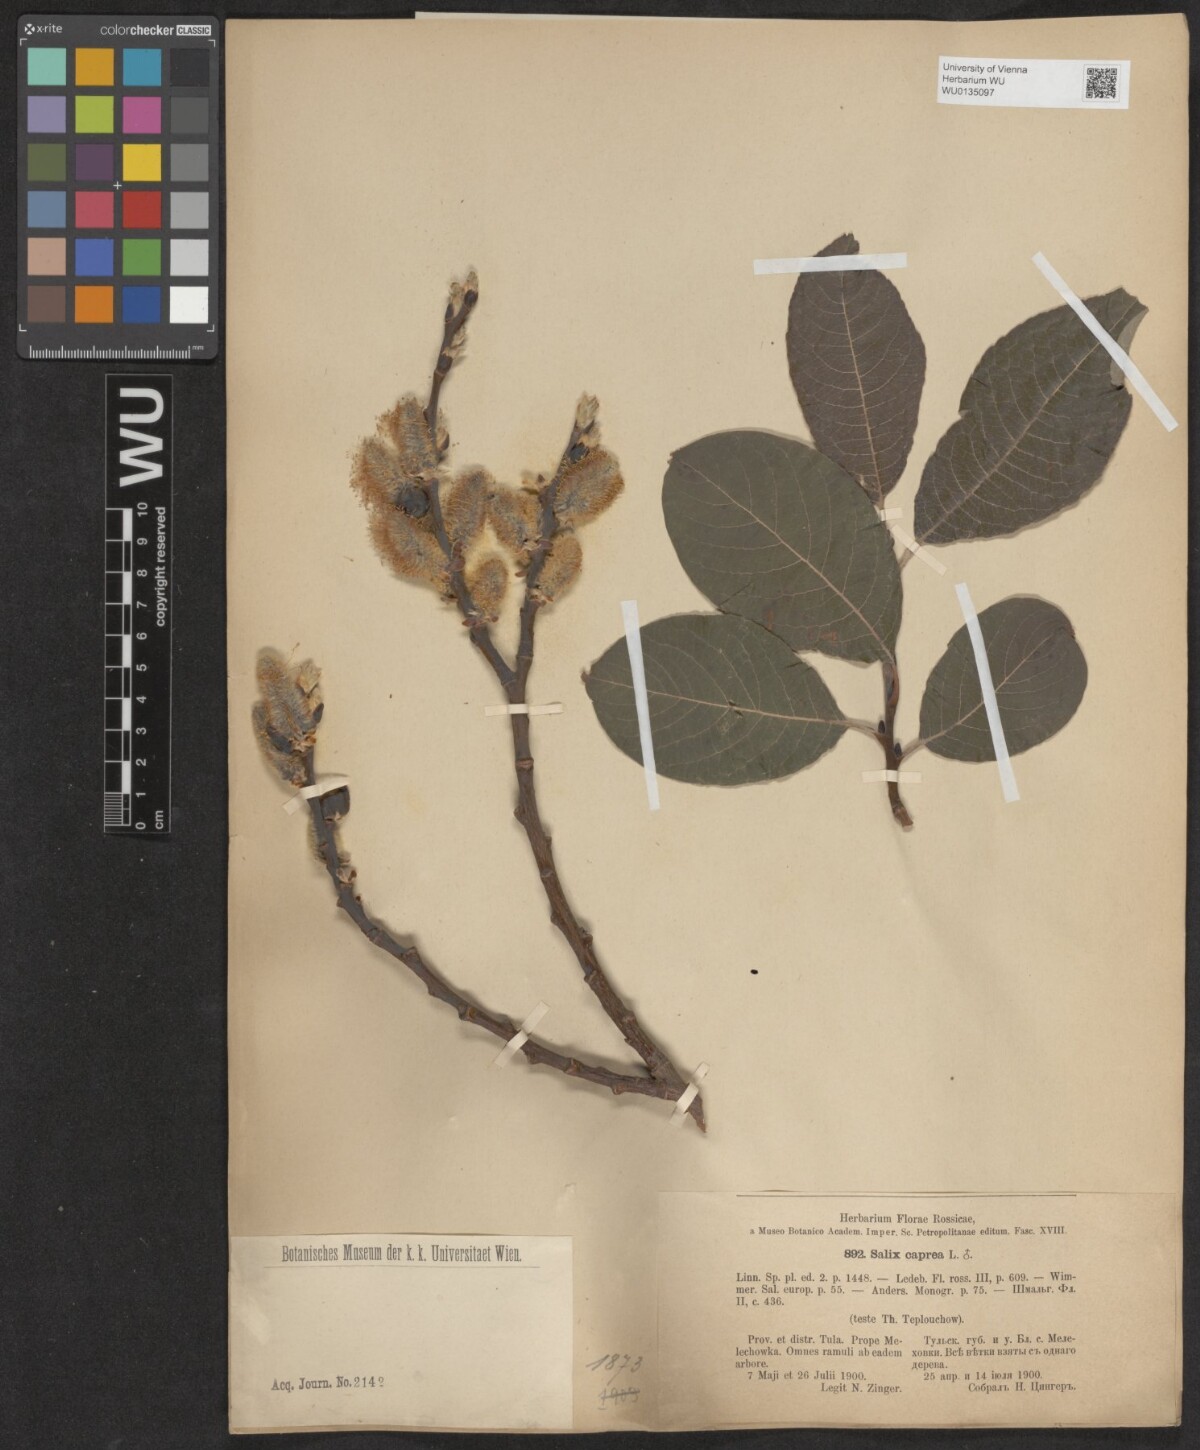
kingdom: Plantae
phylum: Tracheophyta
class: Magnoliopsida
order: Malpighiales
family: Salicaceae
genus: Salix
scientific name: Salix caprea
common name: Goat willow
